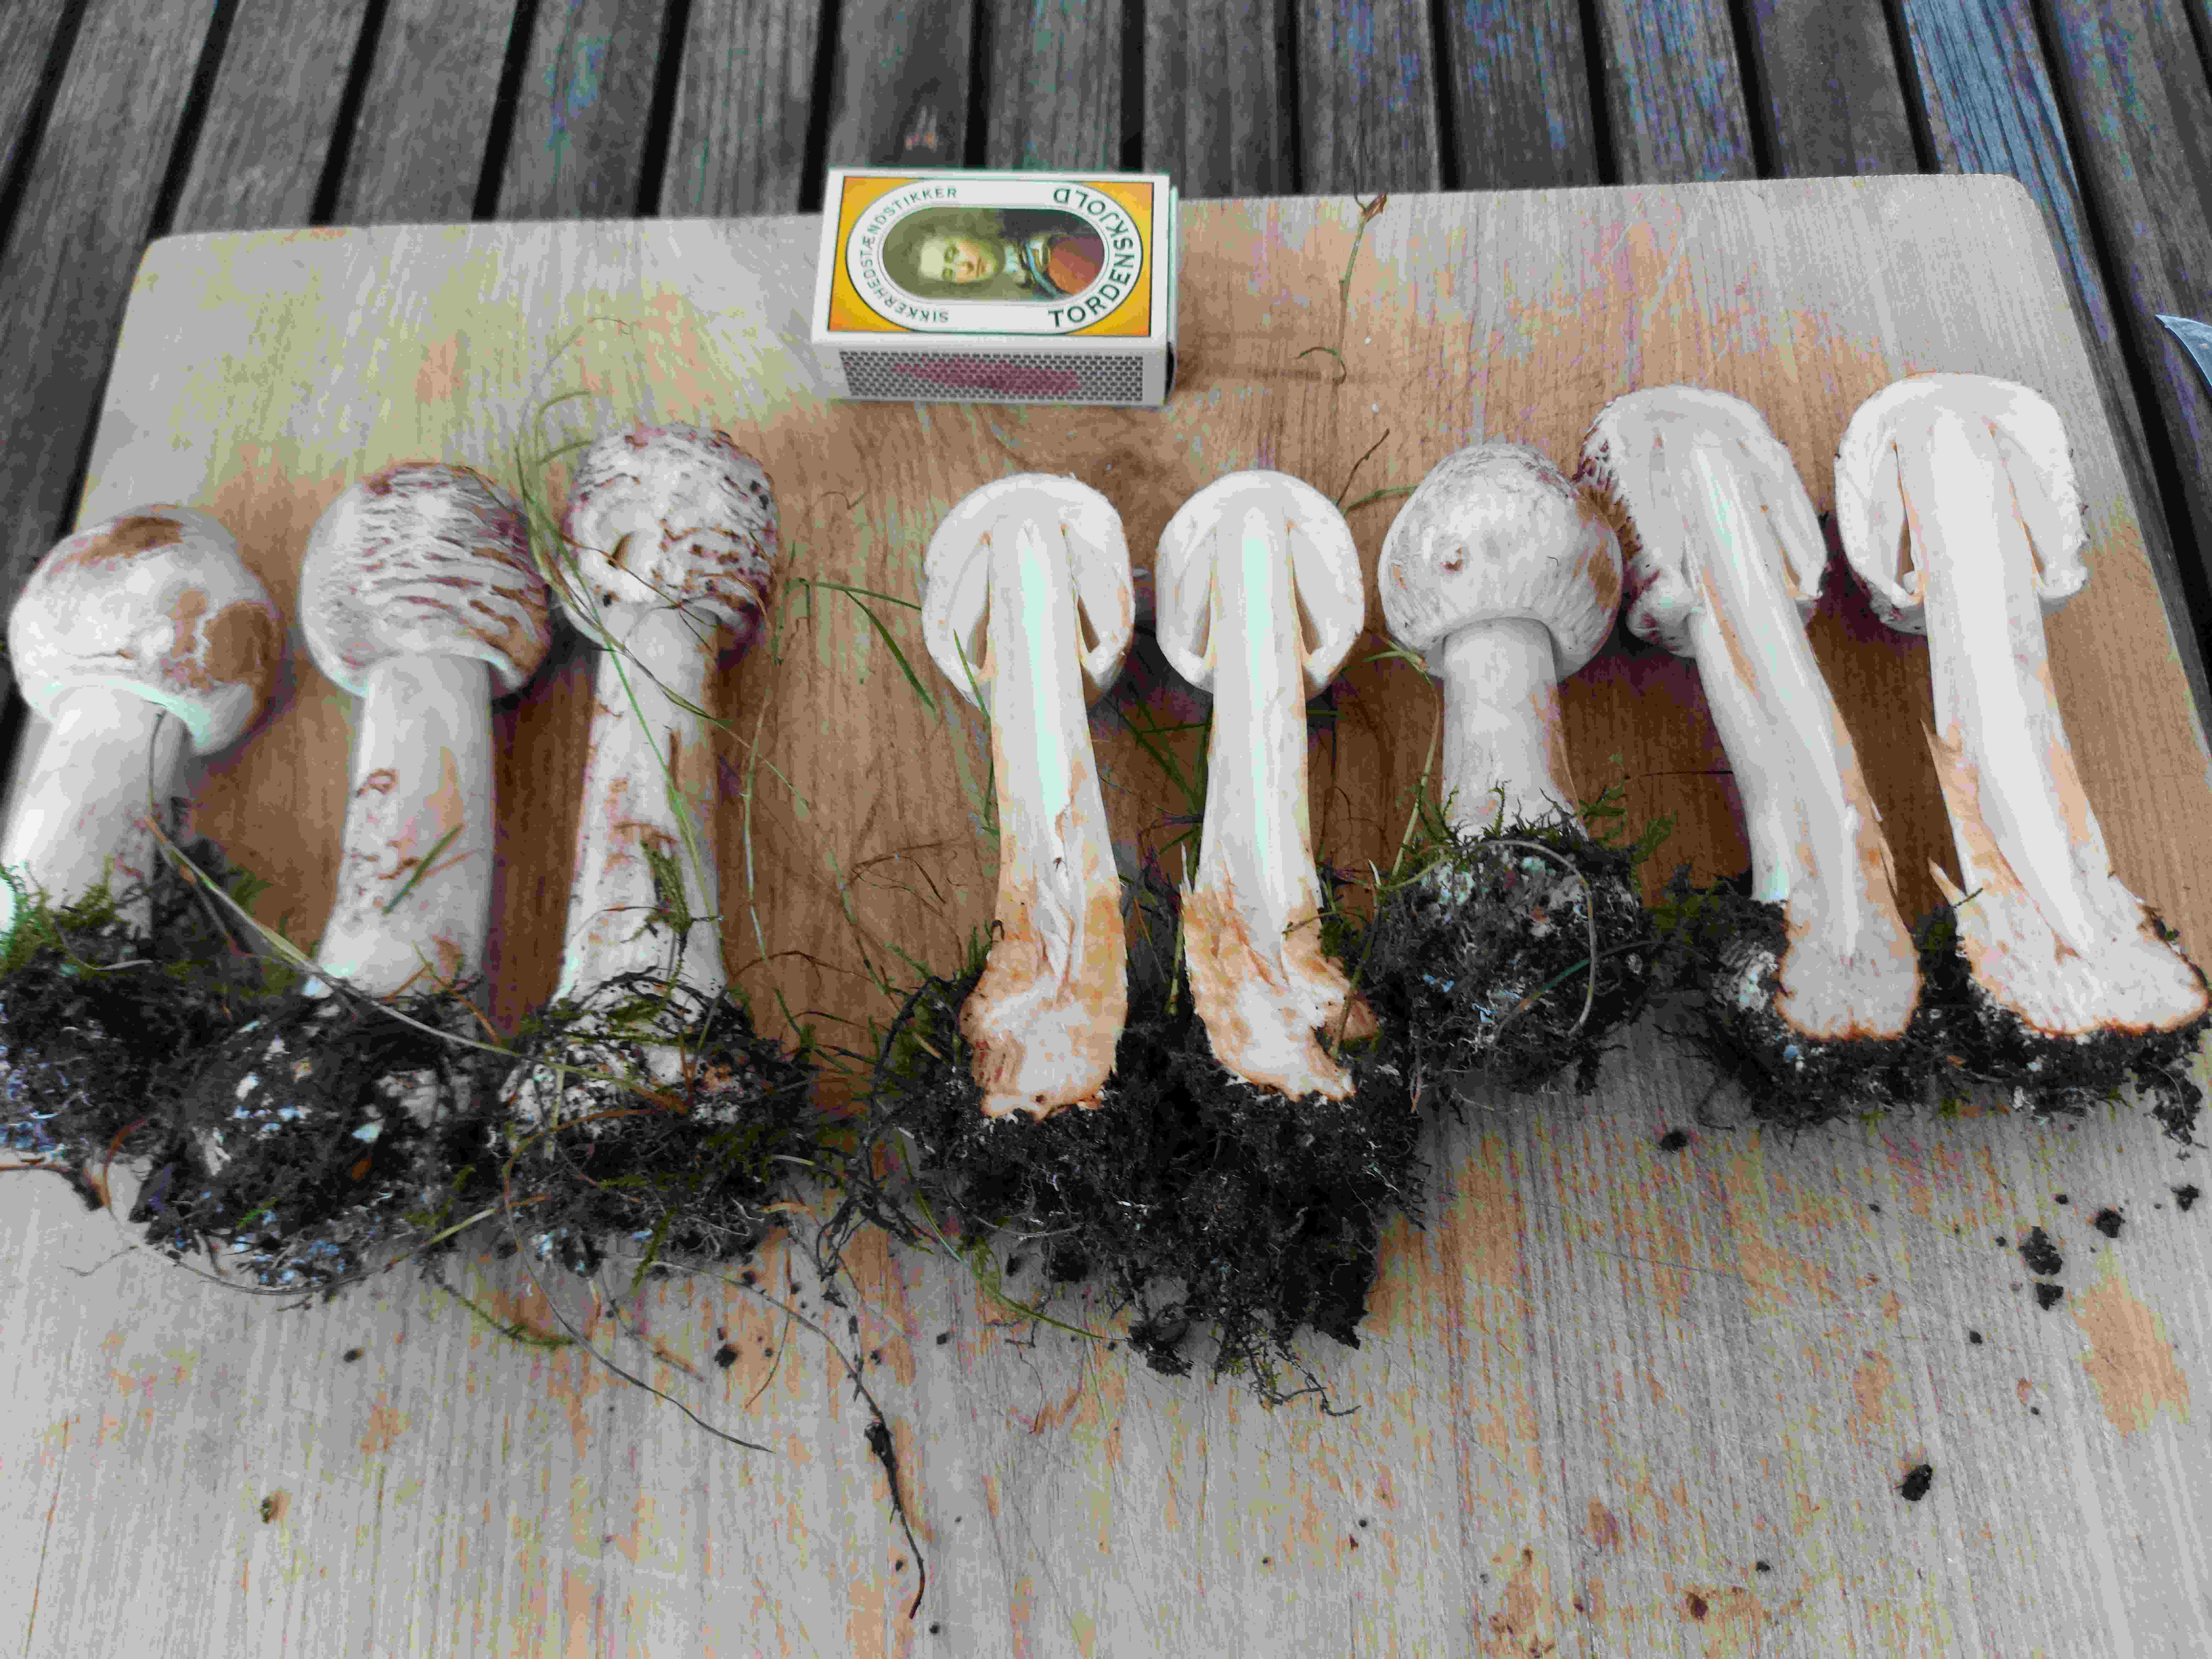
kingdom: Fungi
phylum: Basidiomycota
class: Agaricomycetes
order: Agaricales
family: Agaricaceae
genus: Chlorophyllum
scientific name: Chlorophyllum
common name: rabarberhat
